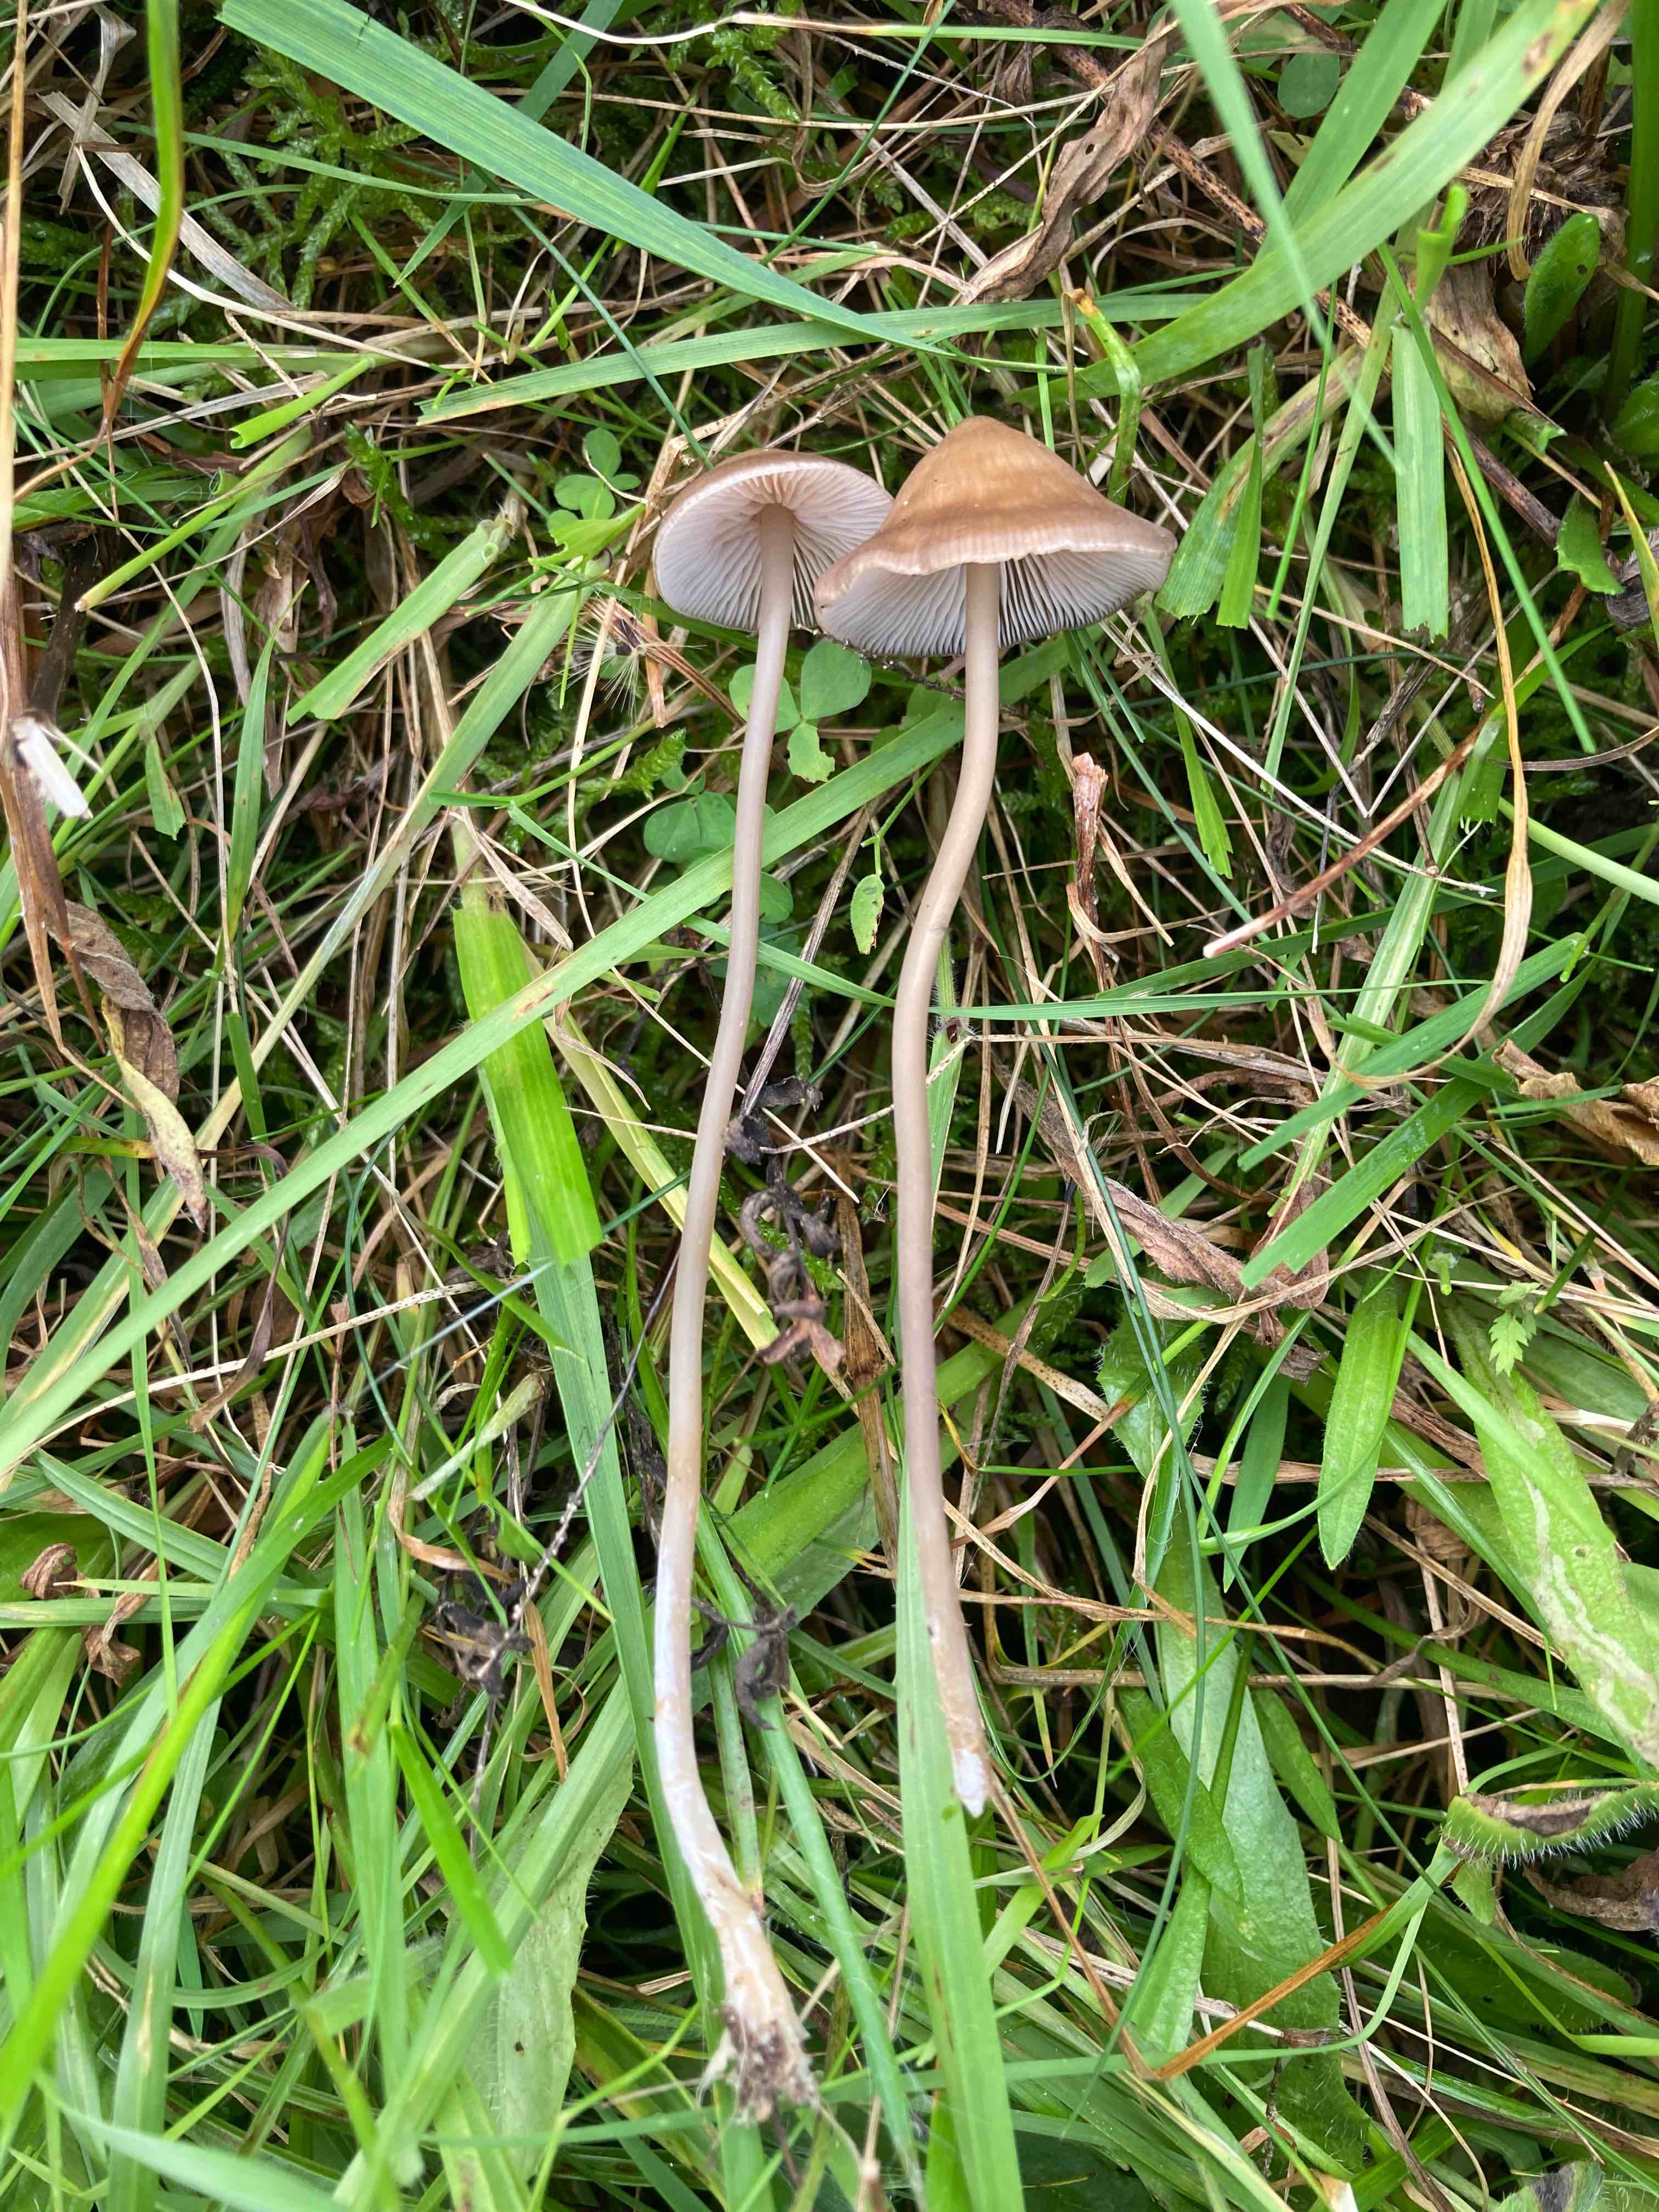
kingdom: Fungi
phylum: Basidiomycota
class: Agaricomycetes
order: Agaricales
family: Entolomataceae
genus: Entoloma
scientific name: Entoloma infula
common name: hvidbladet rødblad
